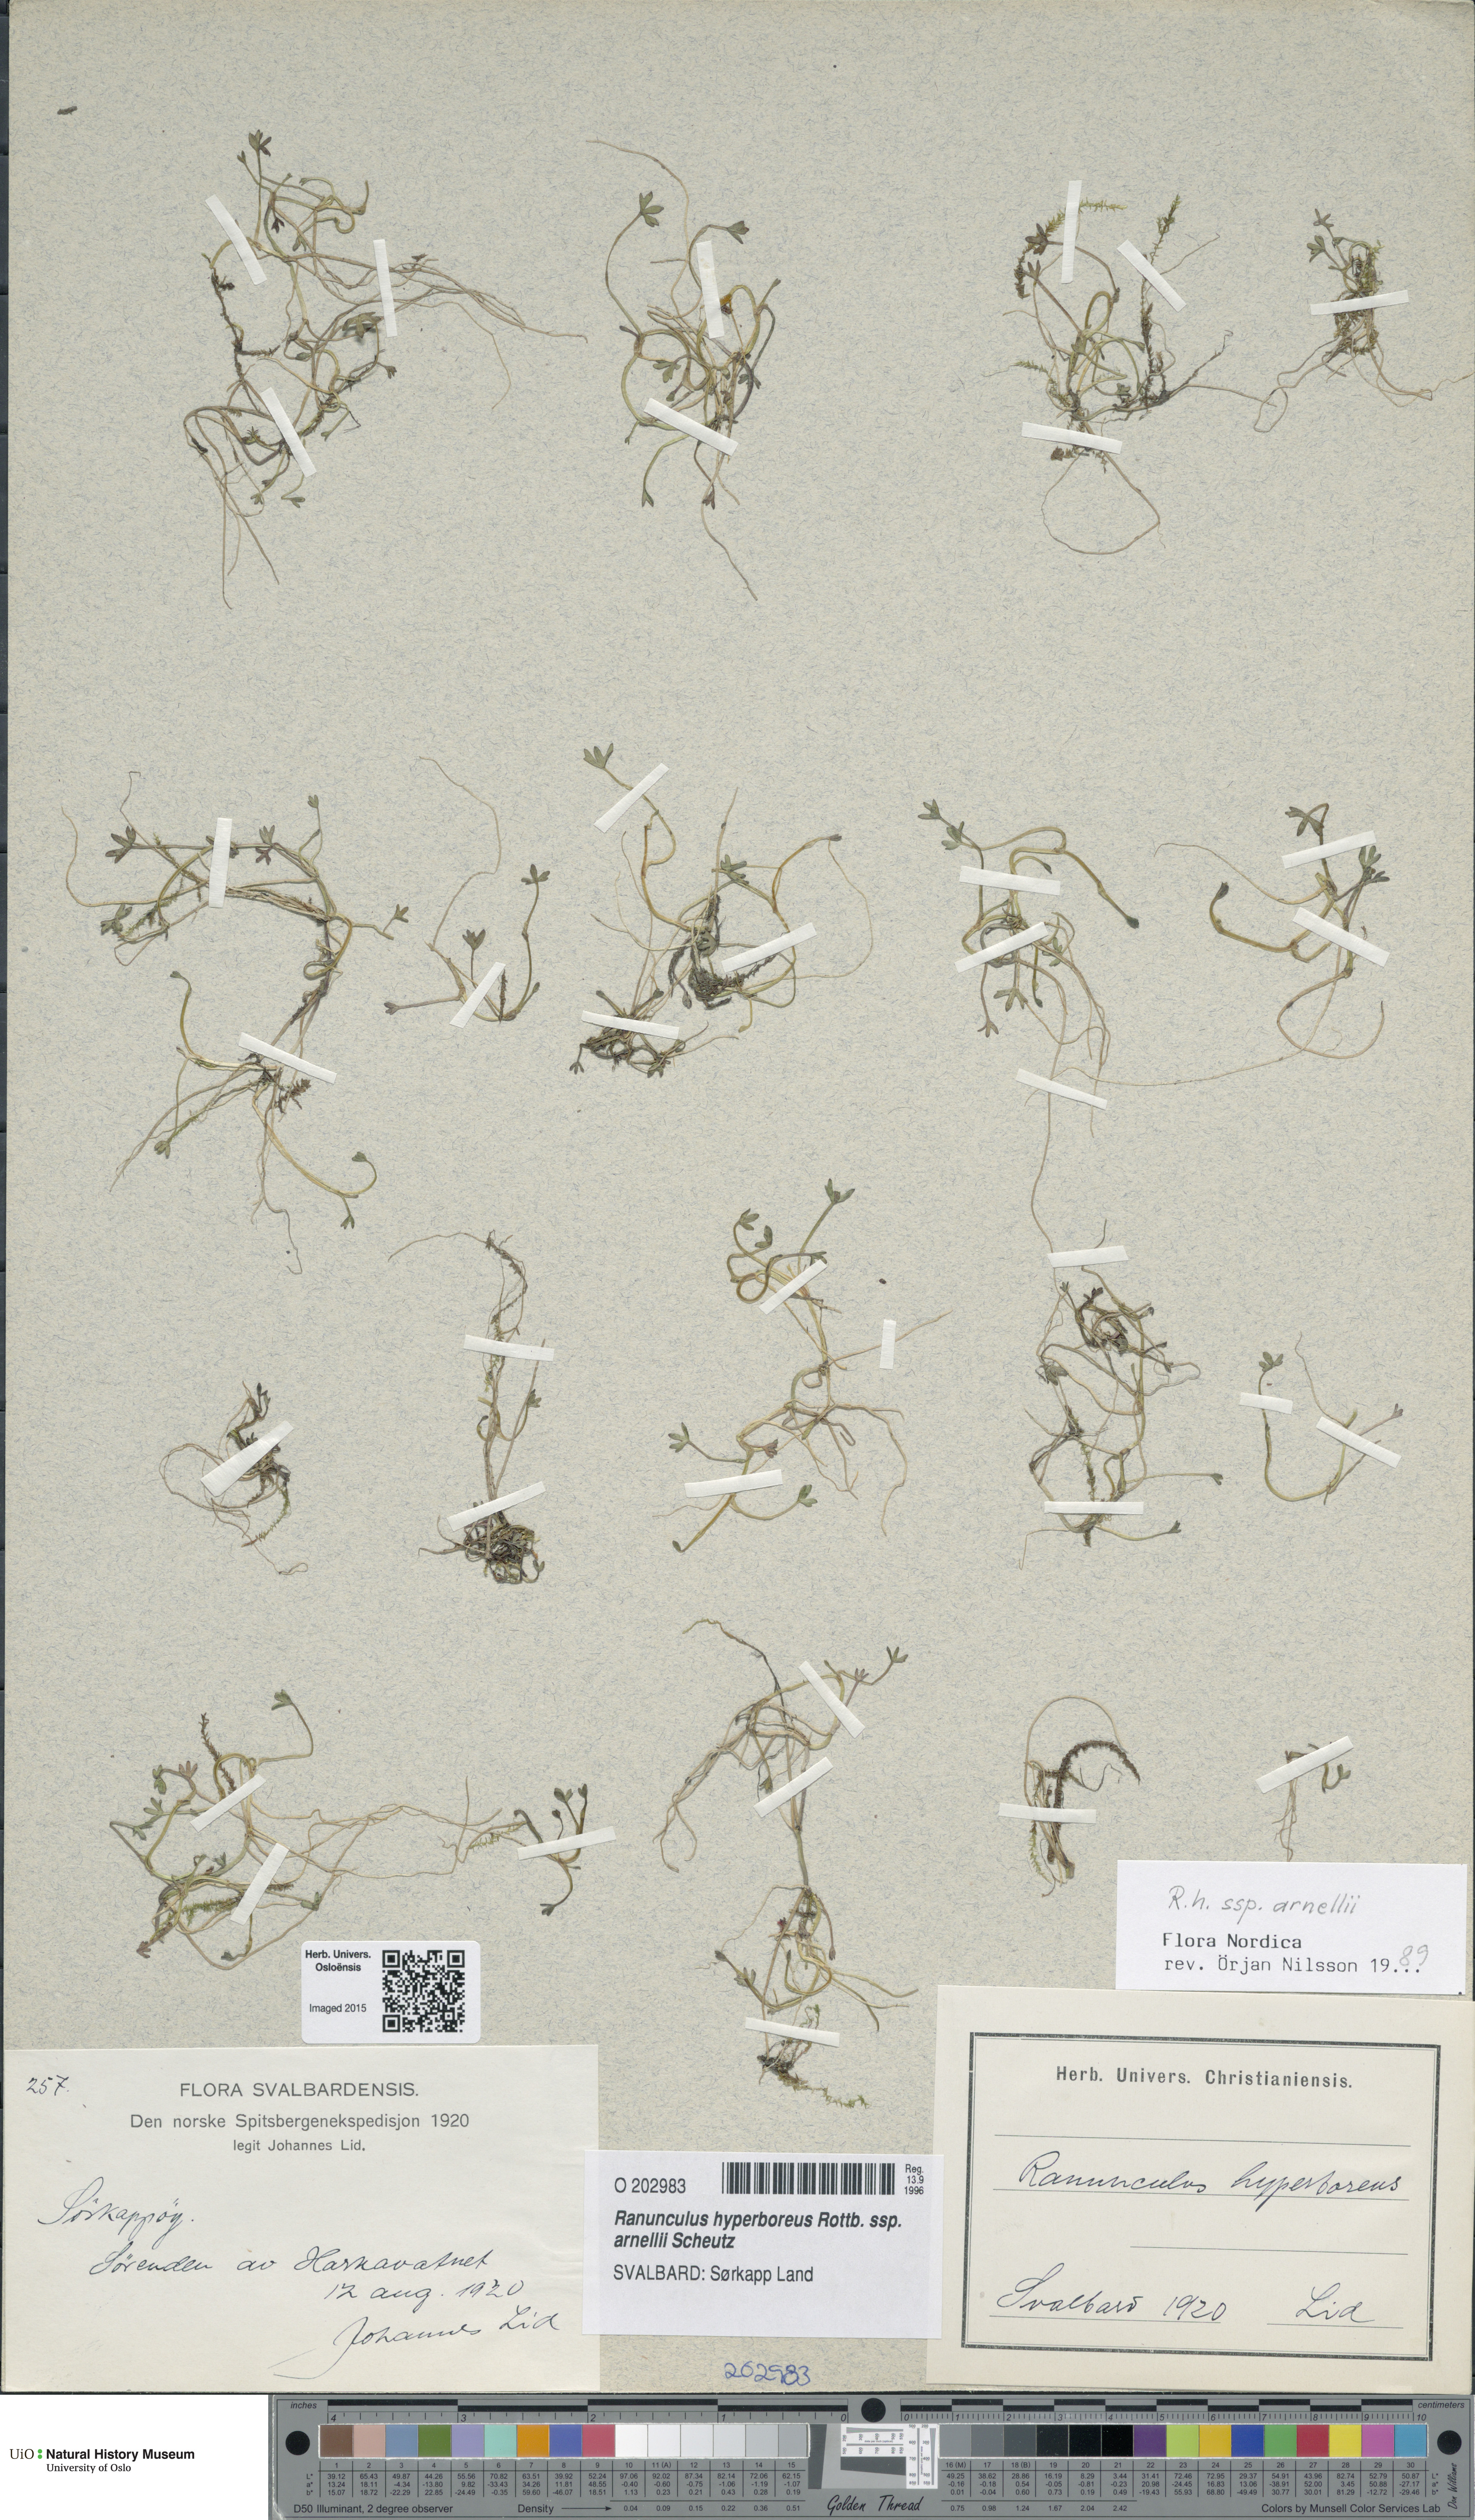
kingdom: Plantae
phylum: Tracheophyta
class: Magnoliopsida
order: Ranunculales
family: Ranunculaceae
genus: Ranunculus
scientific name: Ranunculus hyperboreus
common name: Arctic buttercup
